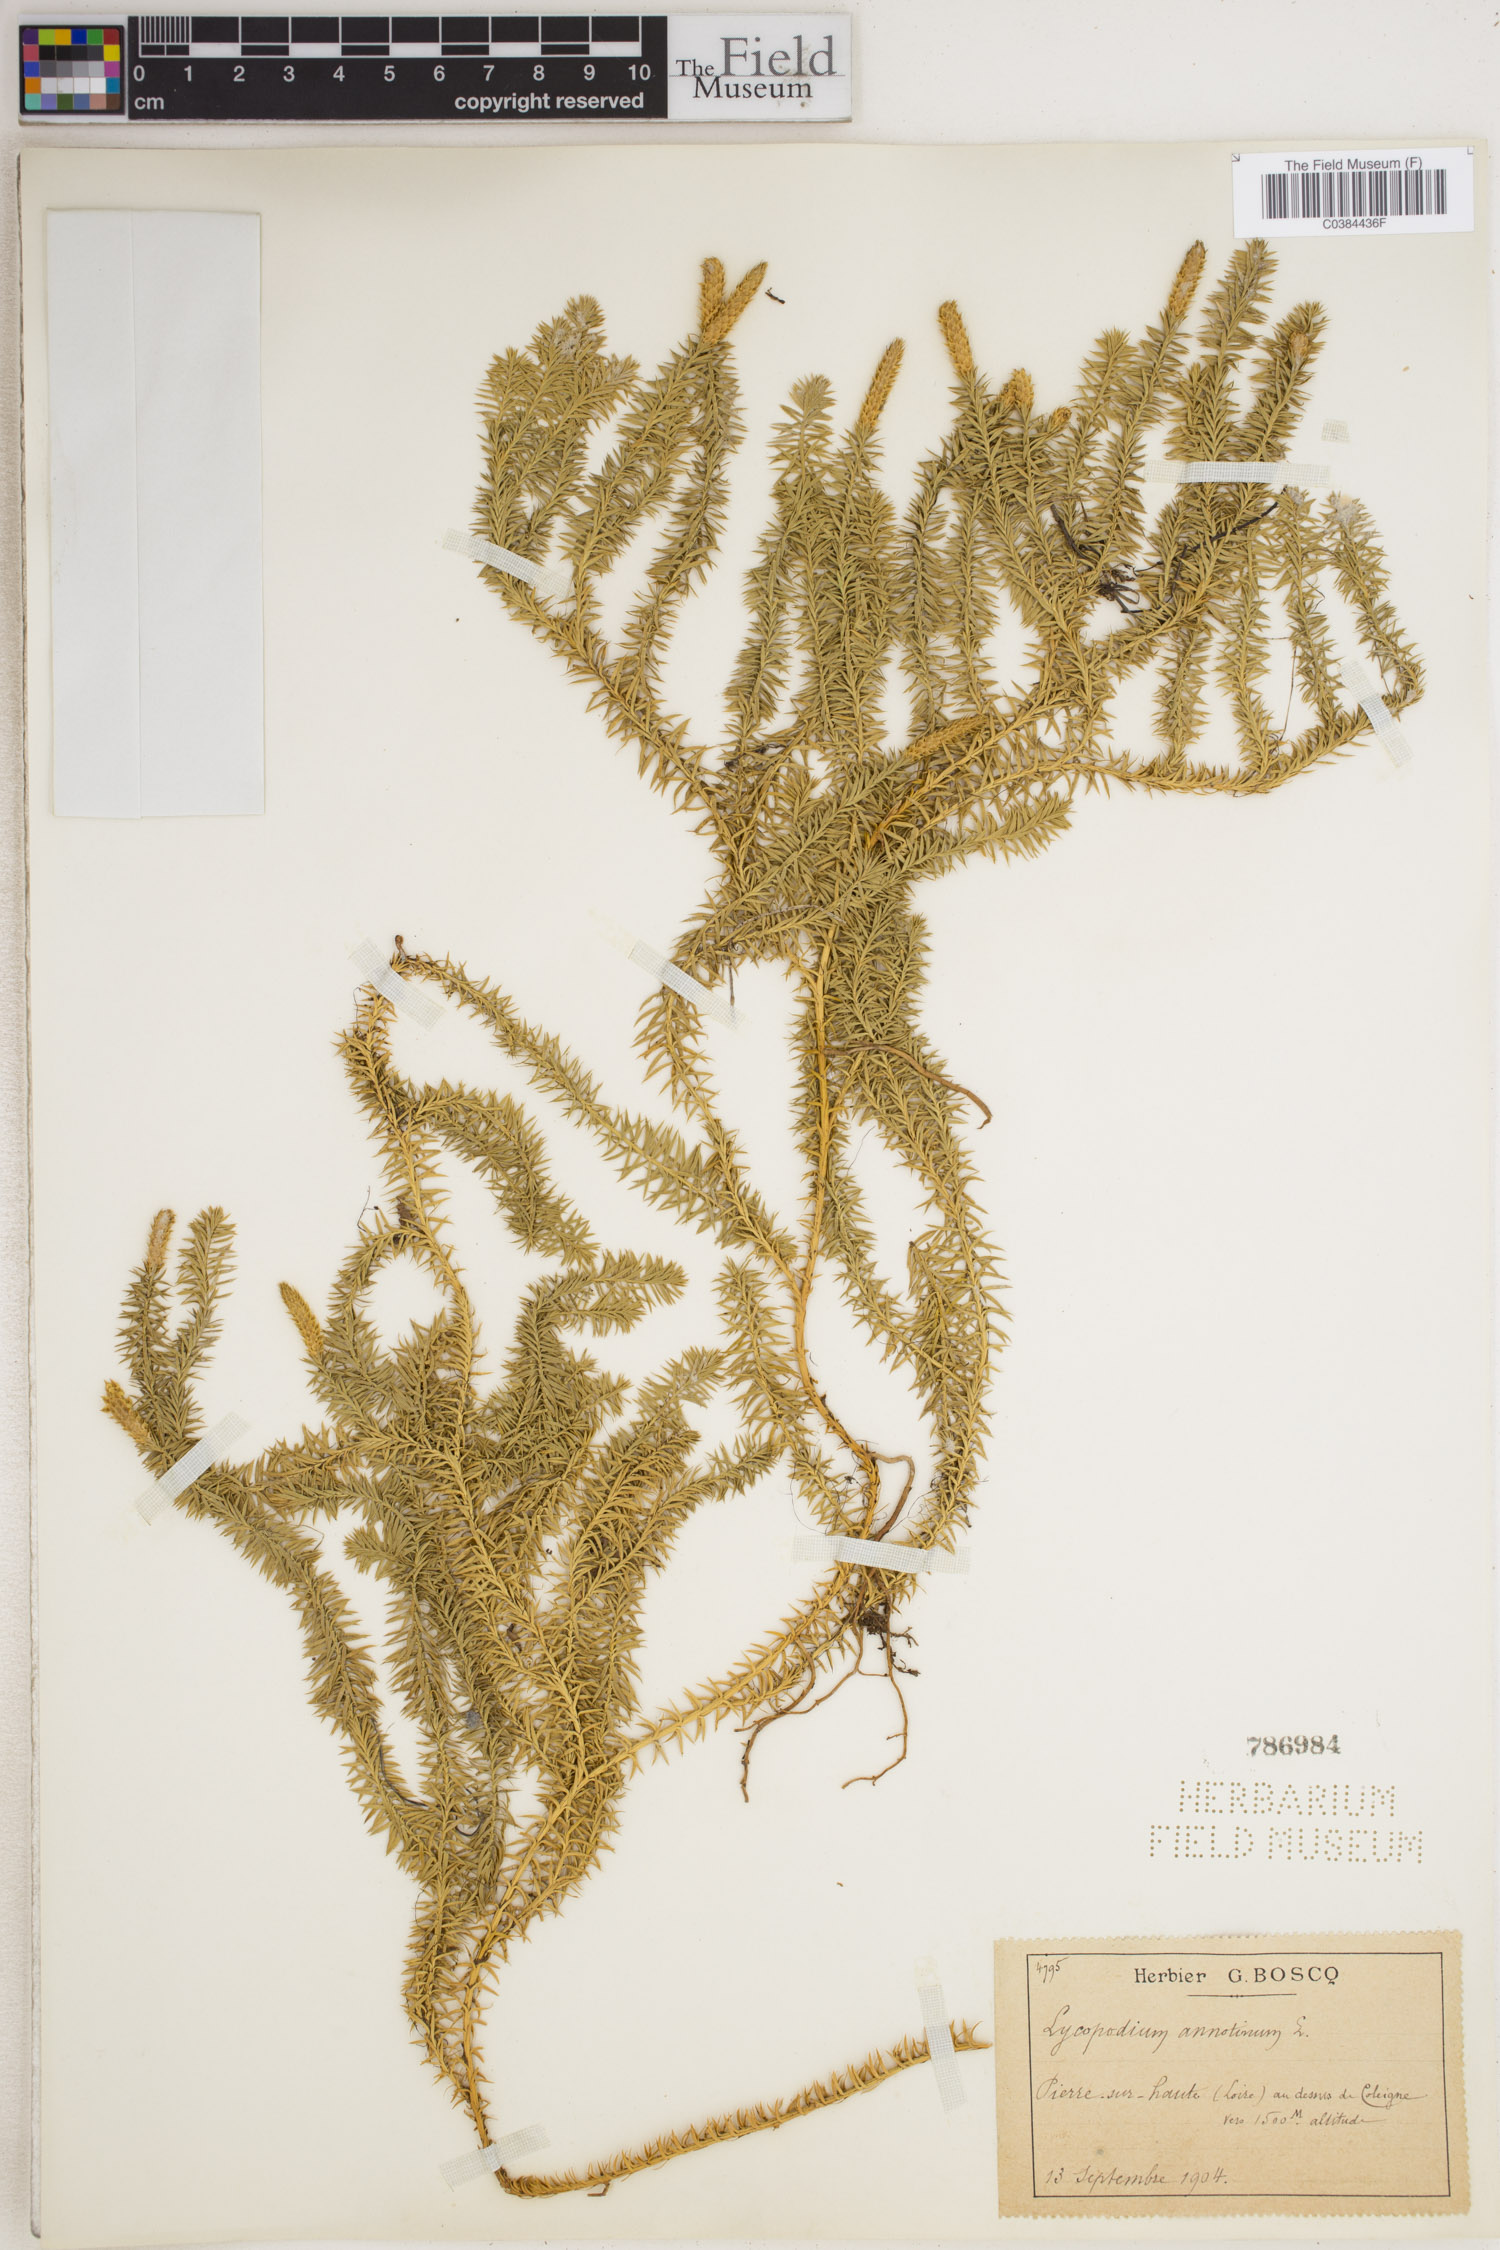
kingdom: Plantae
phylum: Tracheophyta
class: Lycopodiopsida
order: Lycopodiales
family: Lycopodiaceae
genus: Spinulum
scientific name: Spinulum annotinum
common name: Interrupted club-moss
